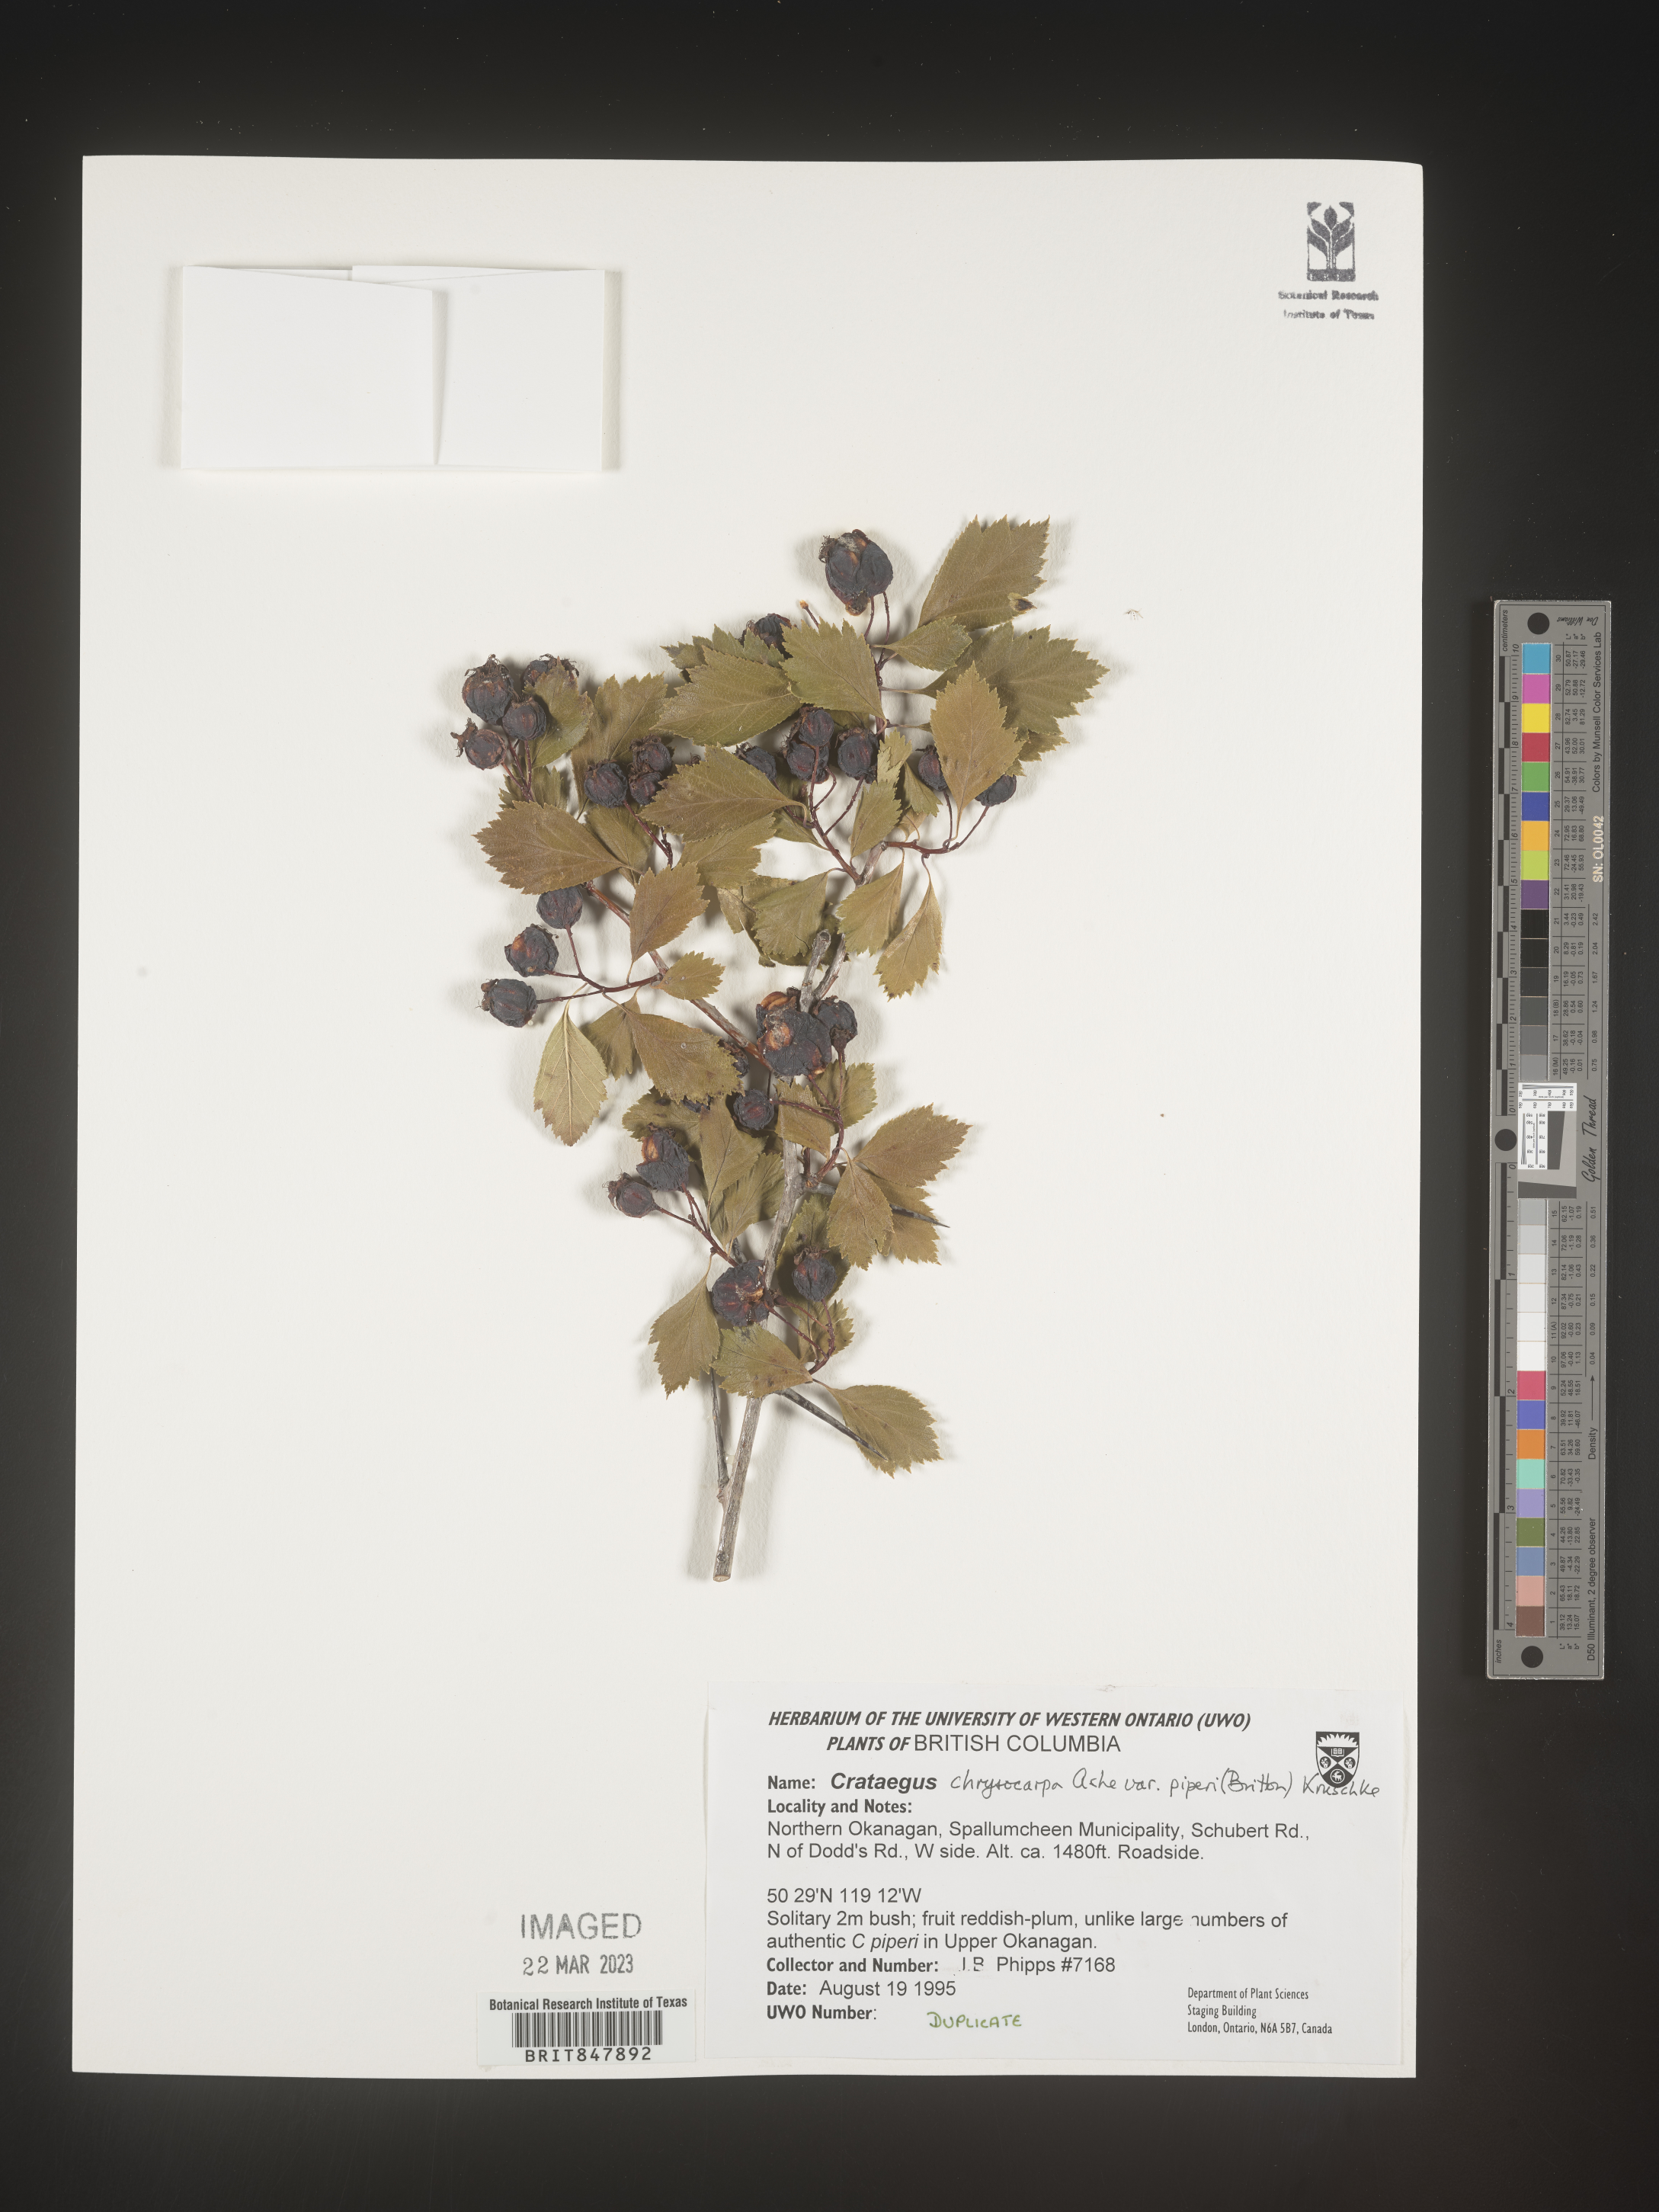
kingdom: Plantae
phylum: Tracheophyta
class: Magnoliopsida
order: Rosales
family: Rosaceae
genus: Crataegus
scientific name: Crataegus chrysocarpa
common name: Fire-berry hawthorn
